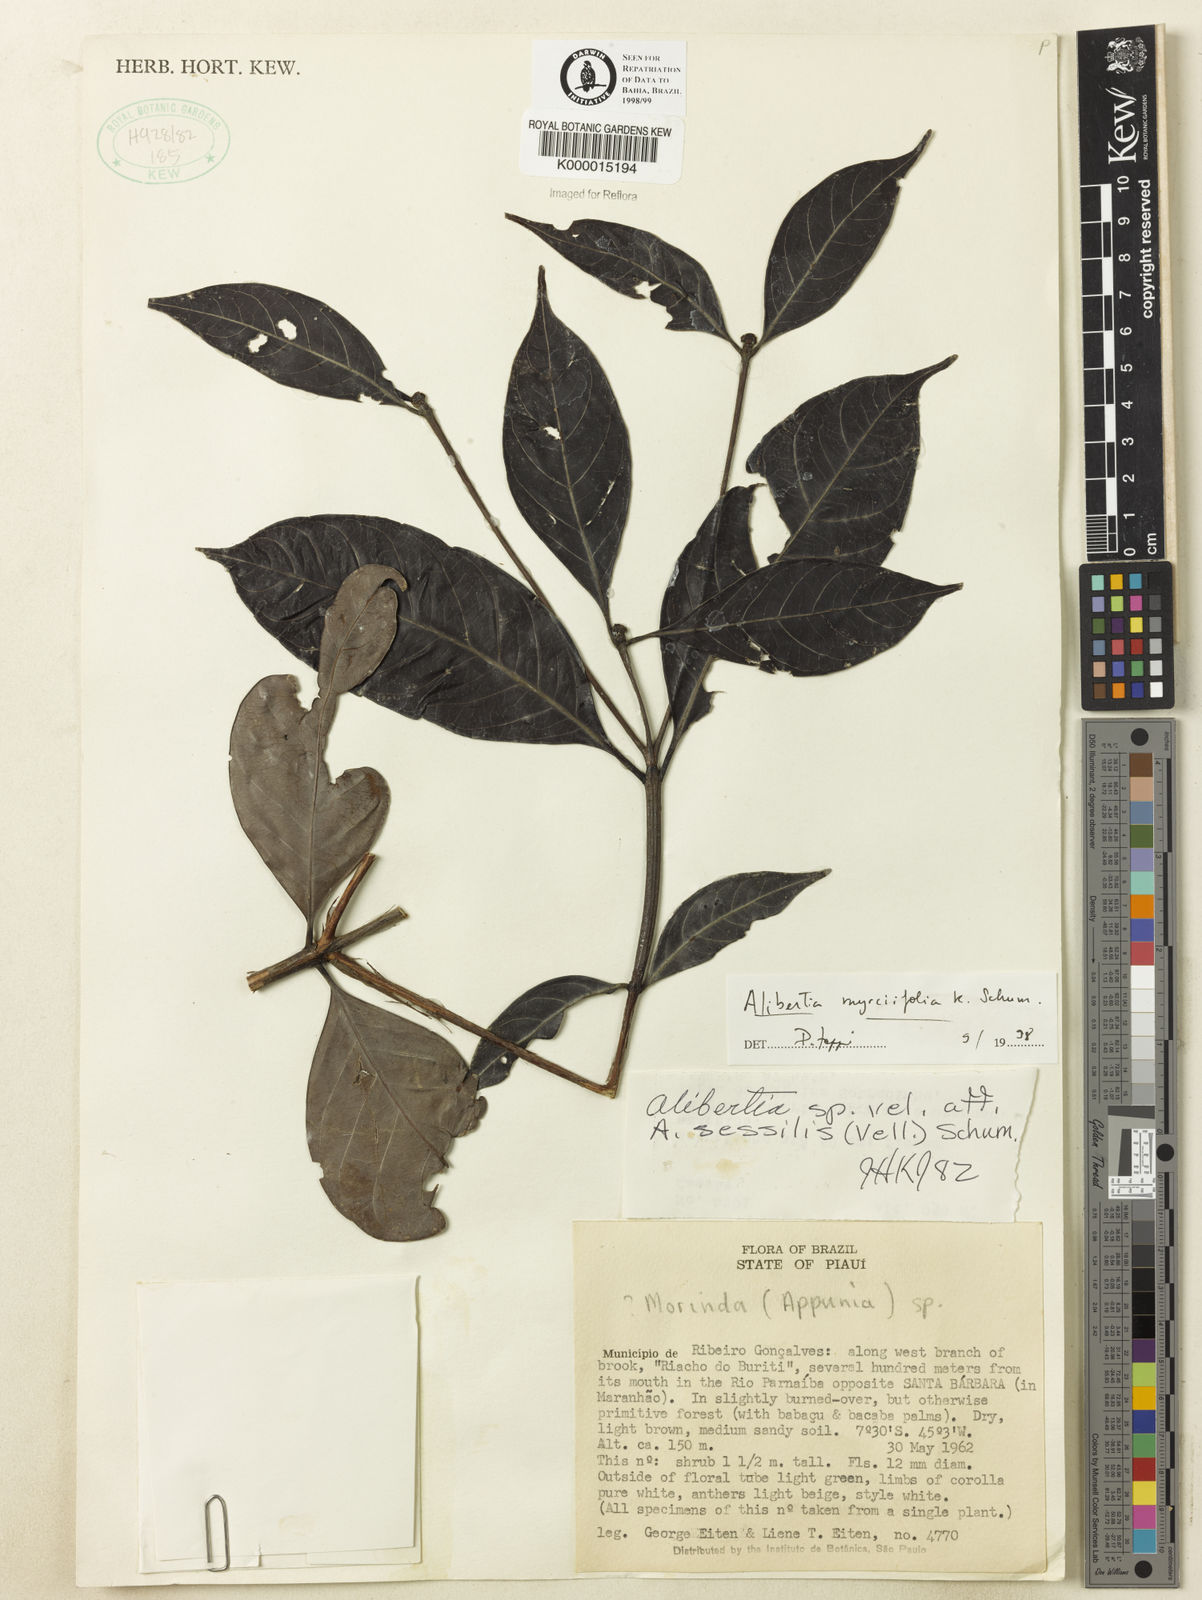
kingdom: Plantae
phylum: Tracheophyta
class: Magnoliopsida
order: Gentianales
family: Rubiaceae
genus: Cordiera
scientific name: Cordiera myrciifolia
